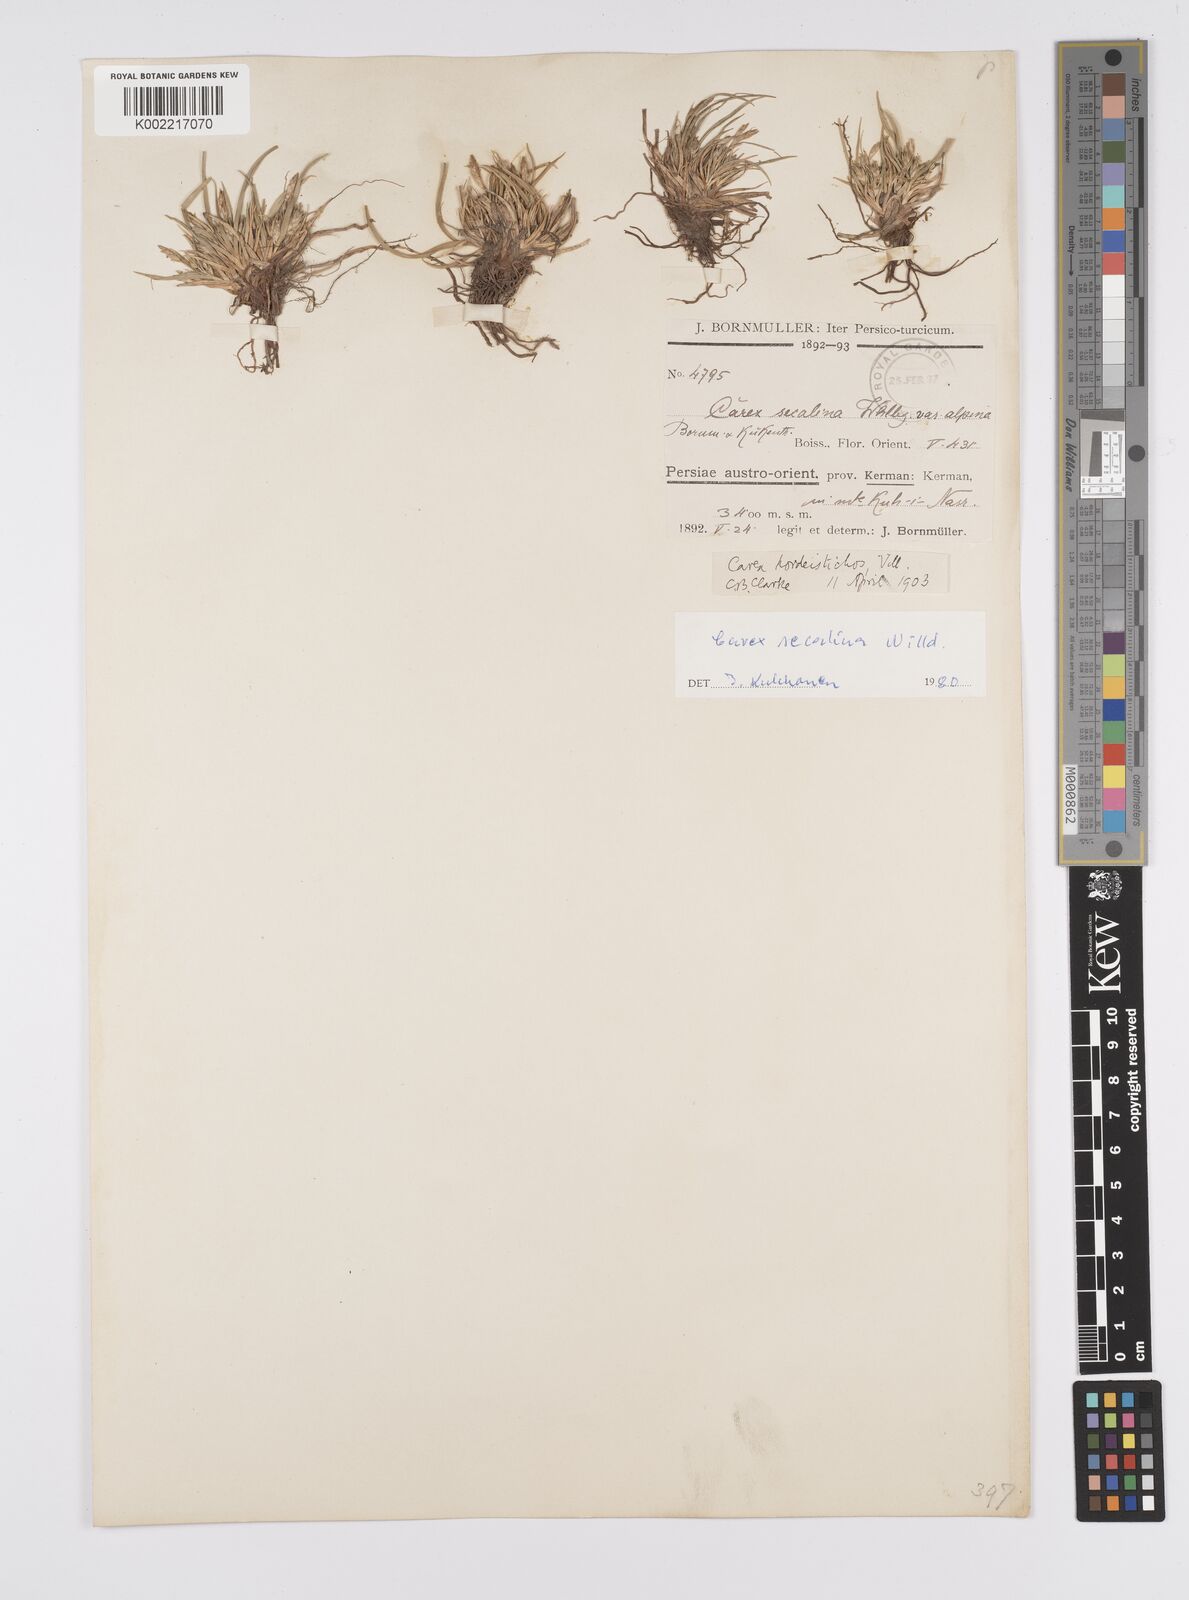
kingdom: Plantae
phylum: Tracheophyta
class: Liliopsida
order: Poales
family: Cyperaceae
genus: Carex
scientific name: Carex secalina
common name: Rye sedge
